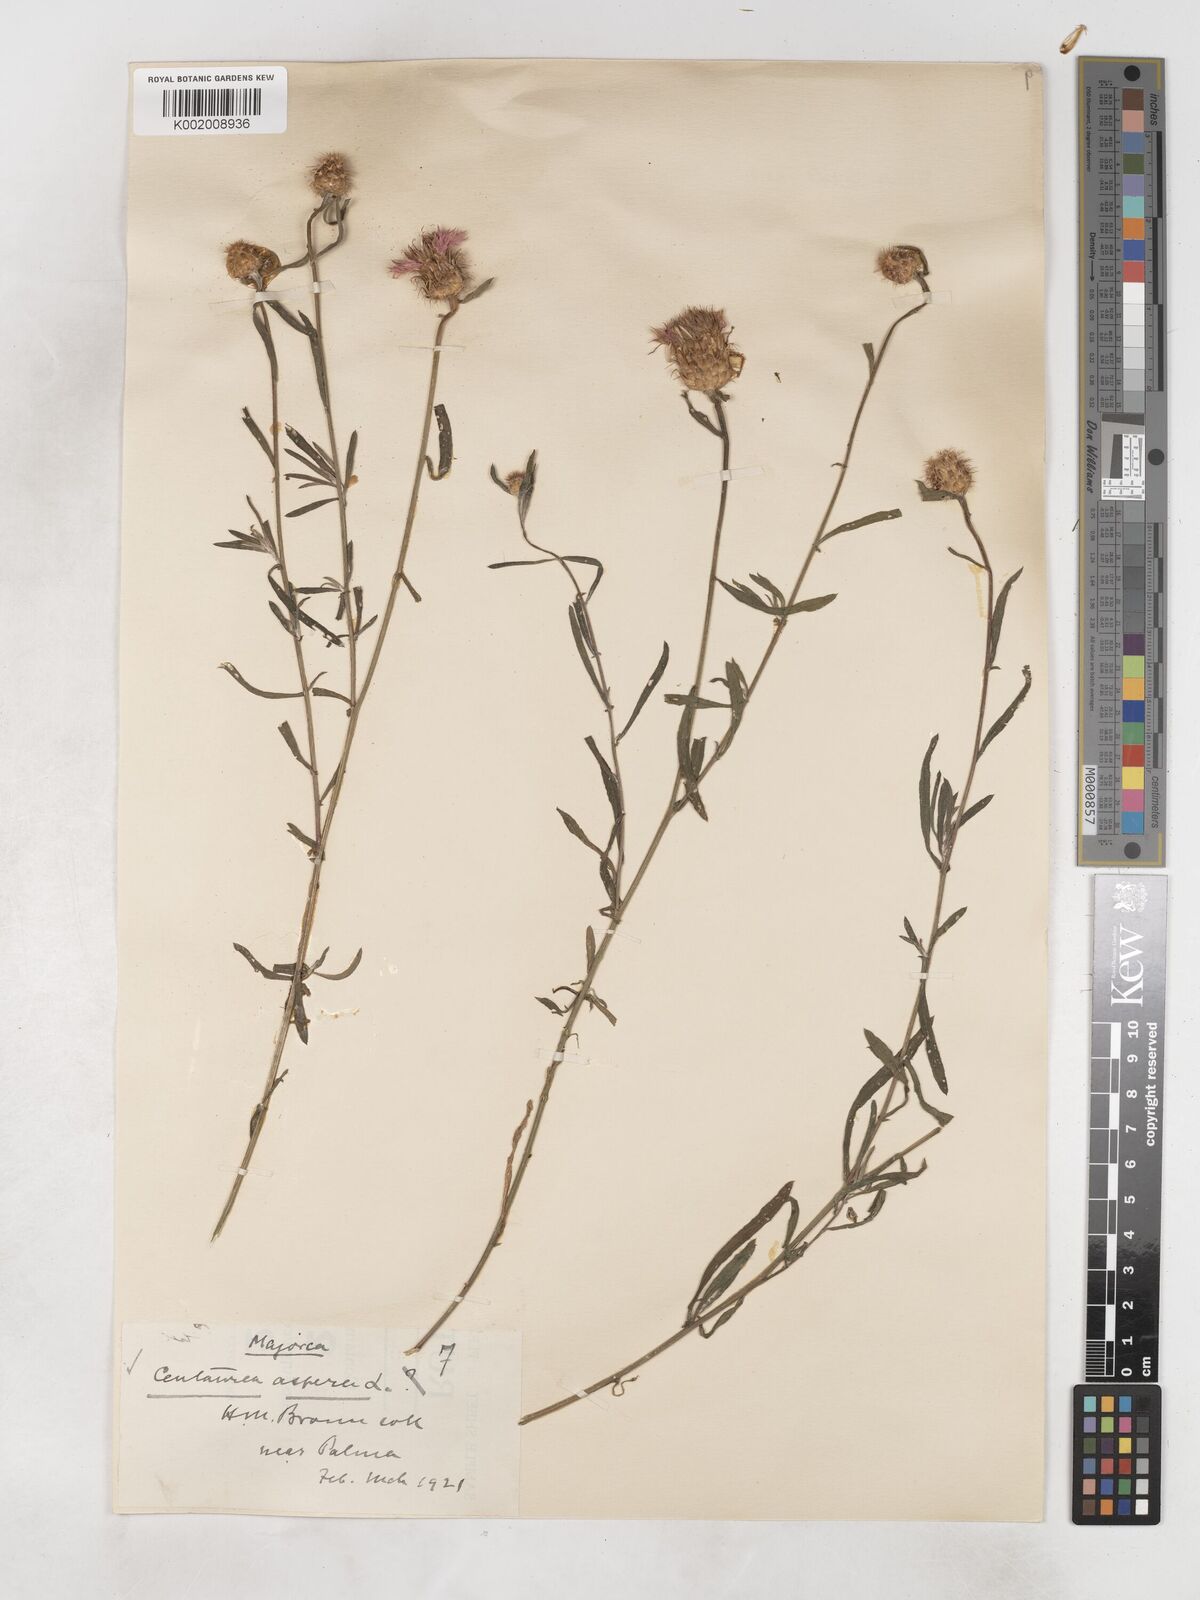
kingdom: Plantae
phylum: Tracheophyta
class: Magnoliopsida
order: Asterales
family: Asteraceae
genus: Centaurea
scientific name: Centaurea aspera
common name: Rough star-thistle
